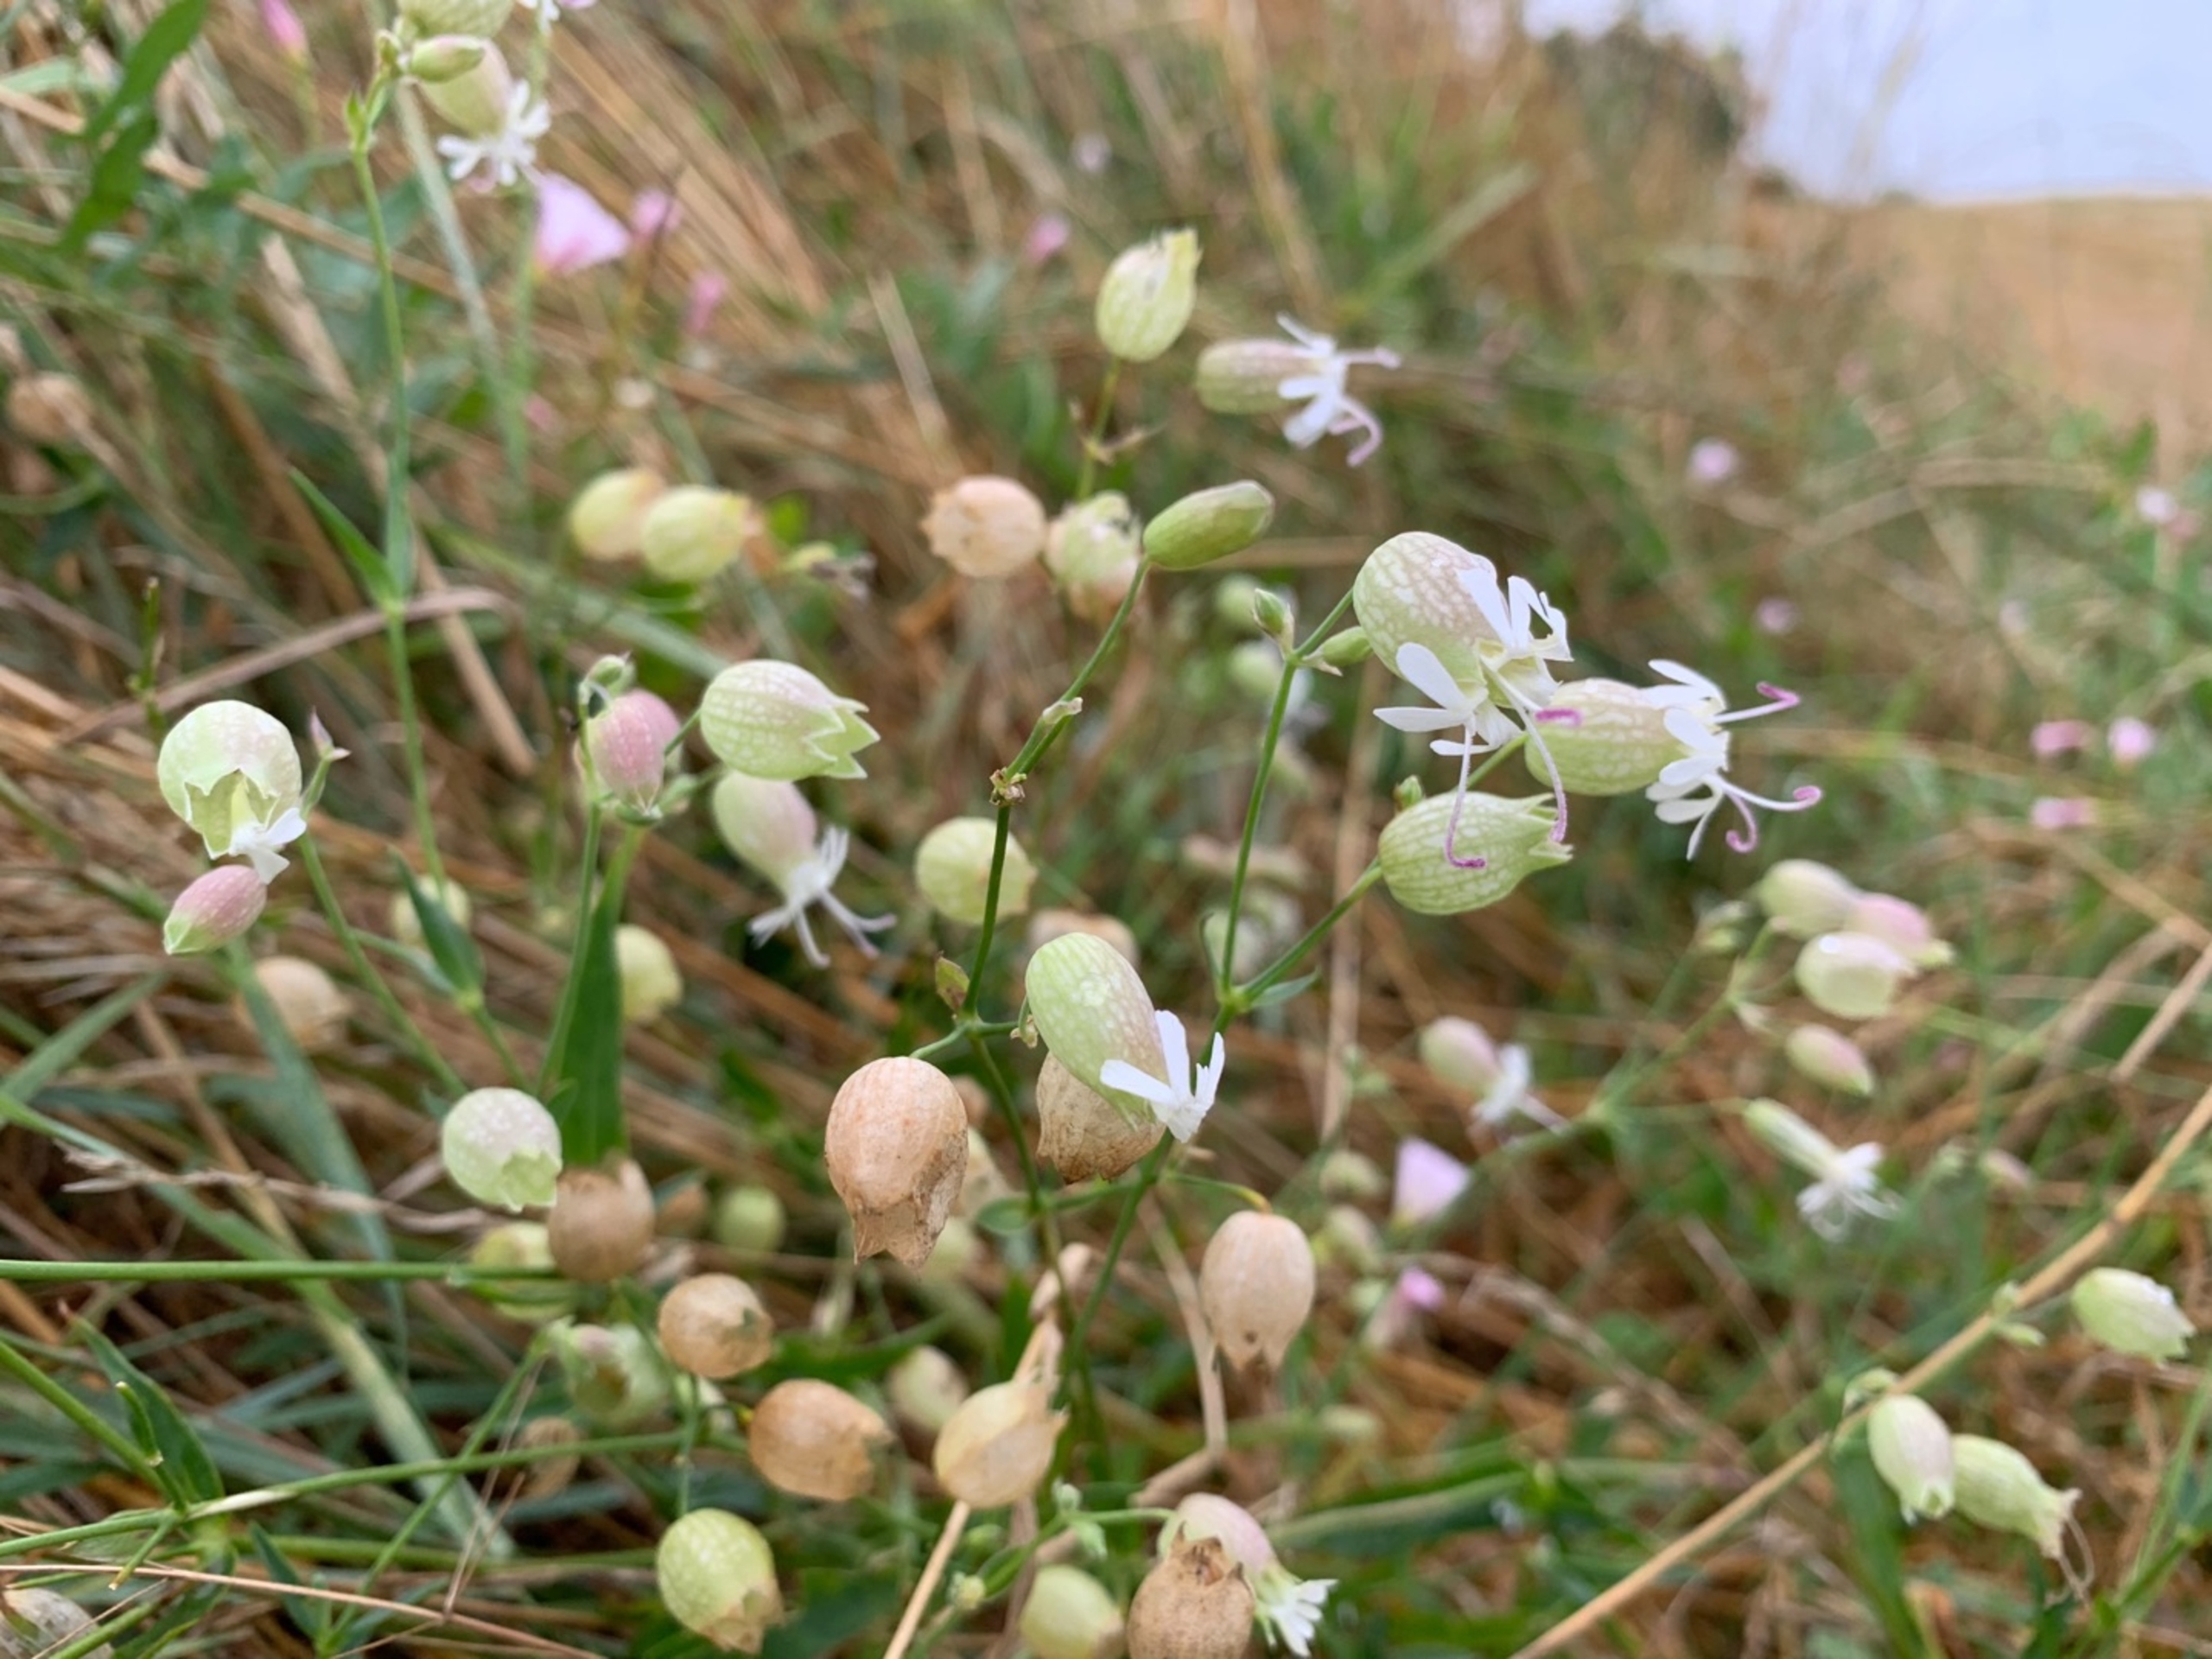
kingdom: Plantae
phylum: Tracheophyta
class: Magnoliopsida
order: Caryophyllales
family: Caryophyllaceae
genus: Silene
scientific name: Silene vulgaris
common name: Blæresmælde
